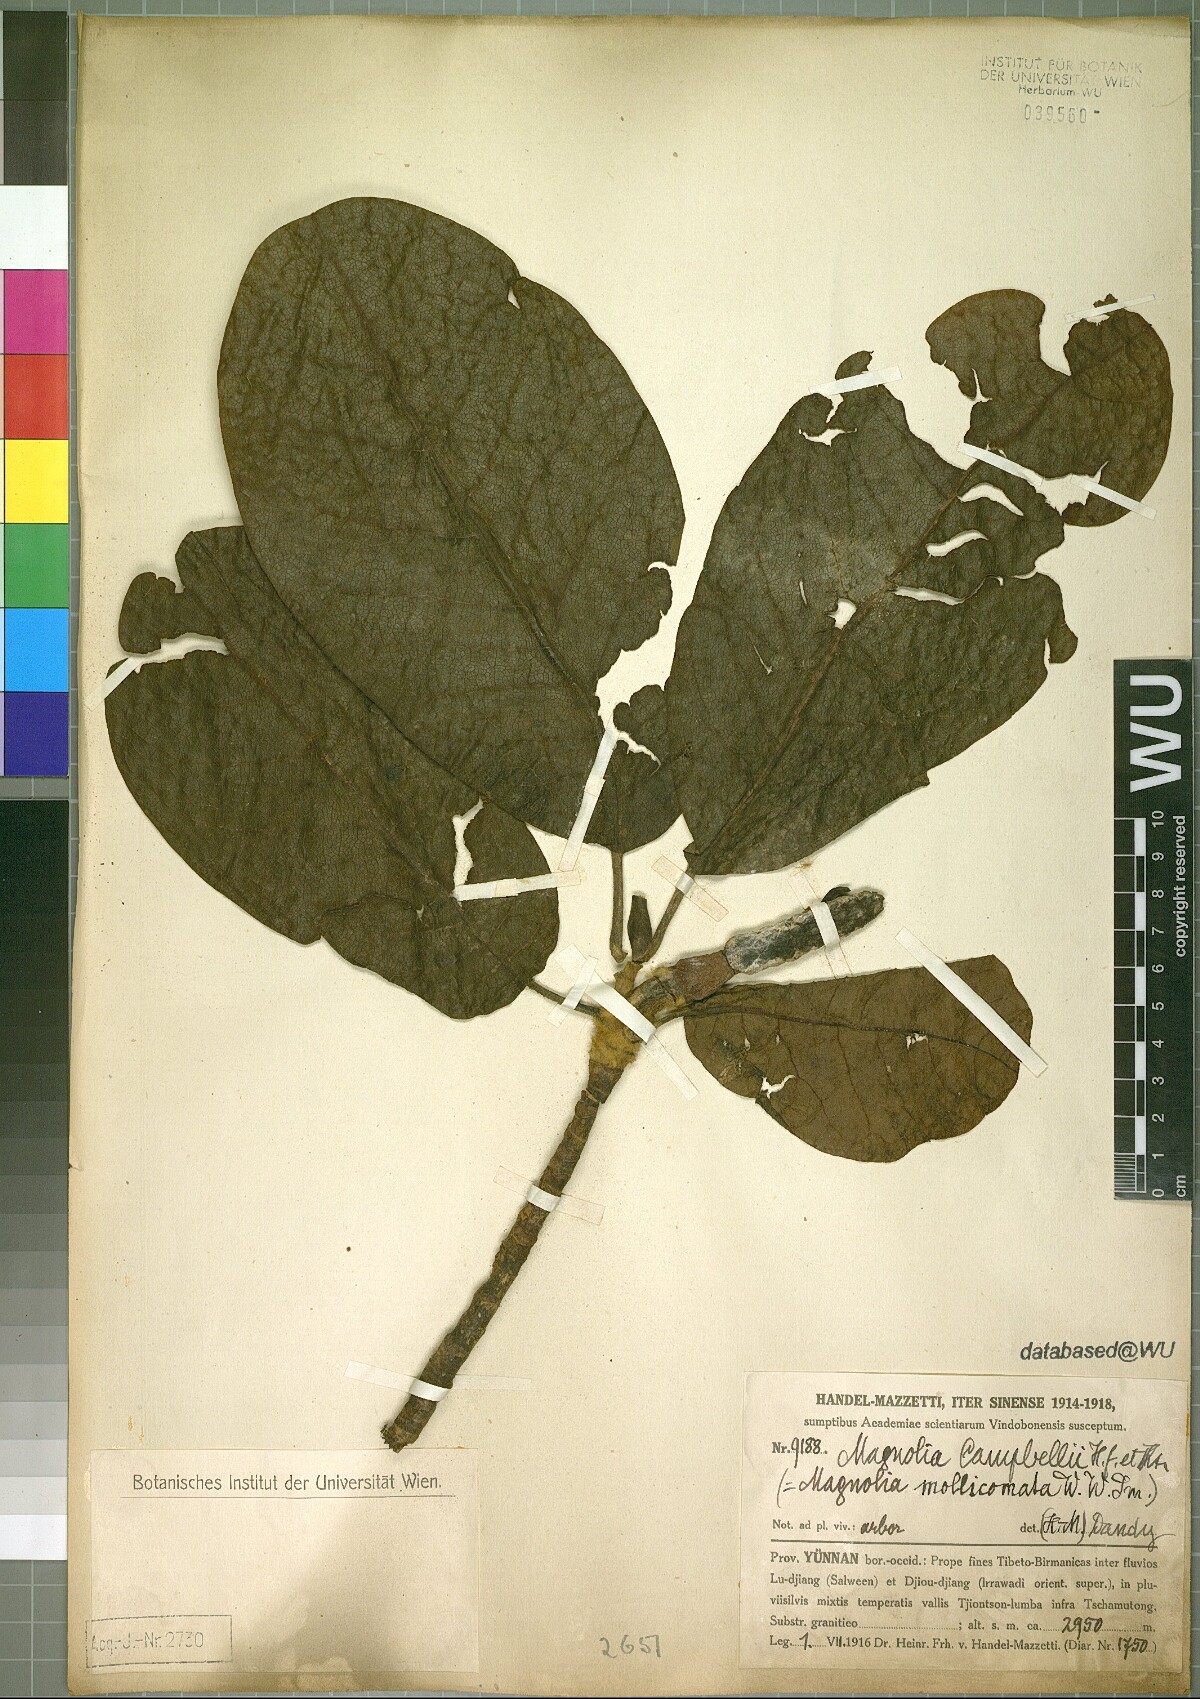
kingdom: Plantae
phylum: Tracheophyta
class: Magnoliopsida
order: Magnoliales
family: Magnoliaceae
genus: Magnolia
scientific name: Magnolia campbellii
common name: Campbell's magnolia
